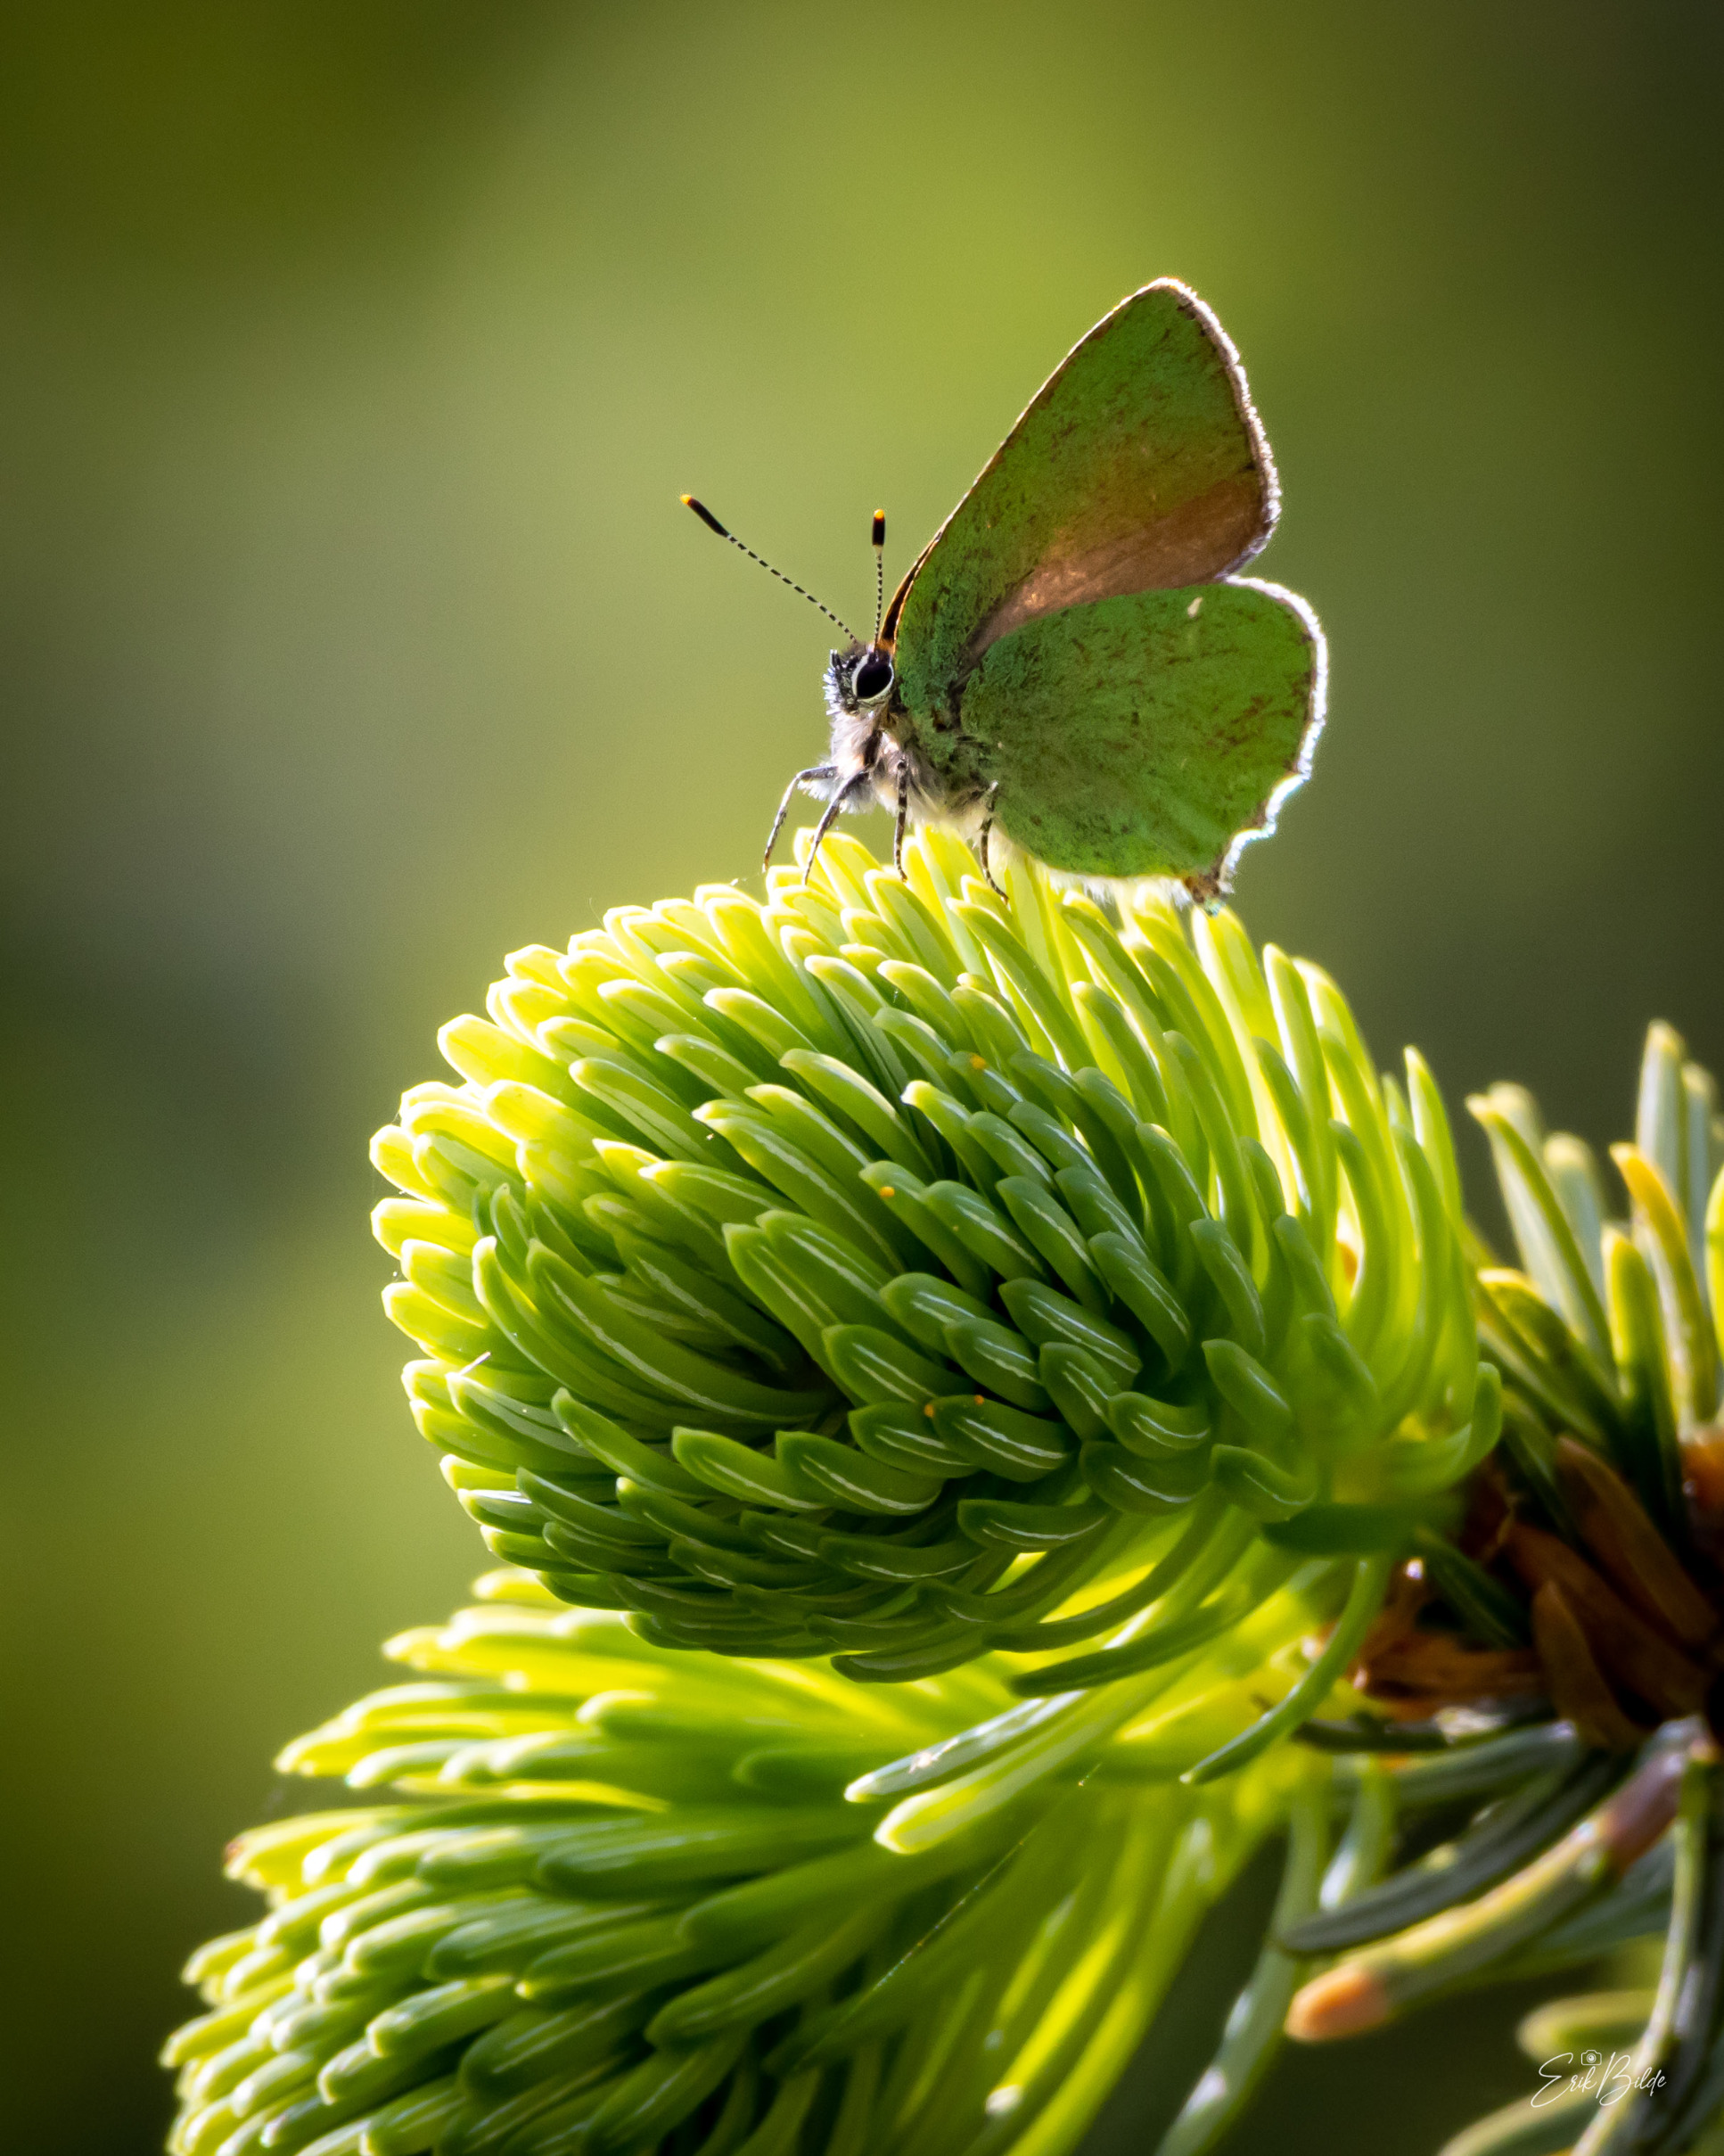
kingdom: Animalia
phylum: Arthropoda
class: Insecta
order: Lepidoptera
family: Lycaenidae
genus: Callophrys
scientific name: Callophrys rubi
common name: Grøn busksommerfugl
